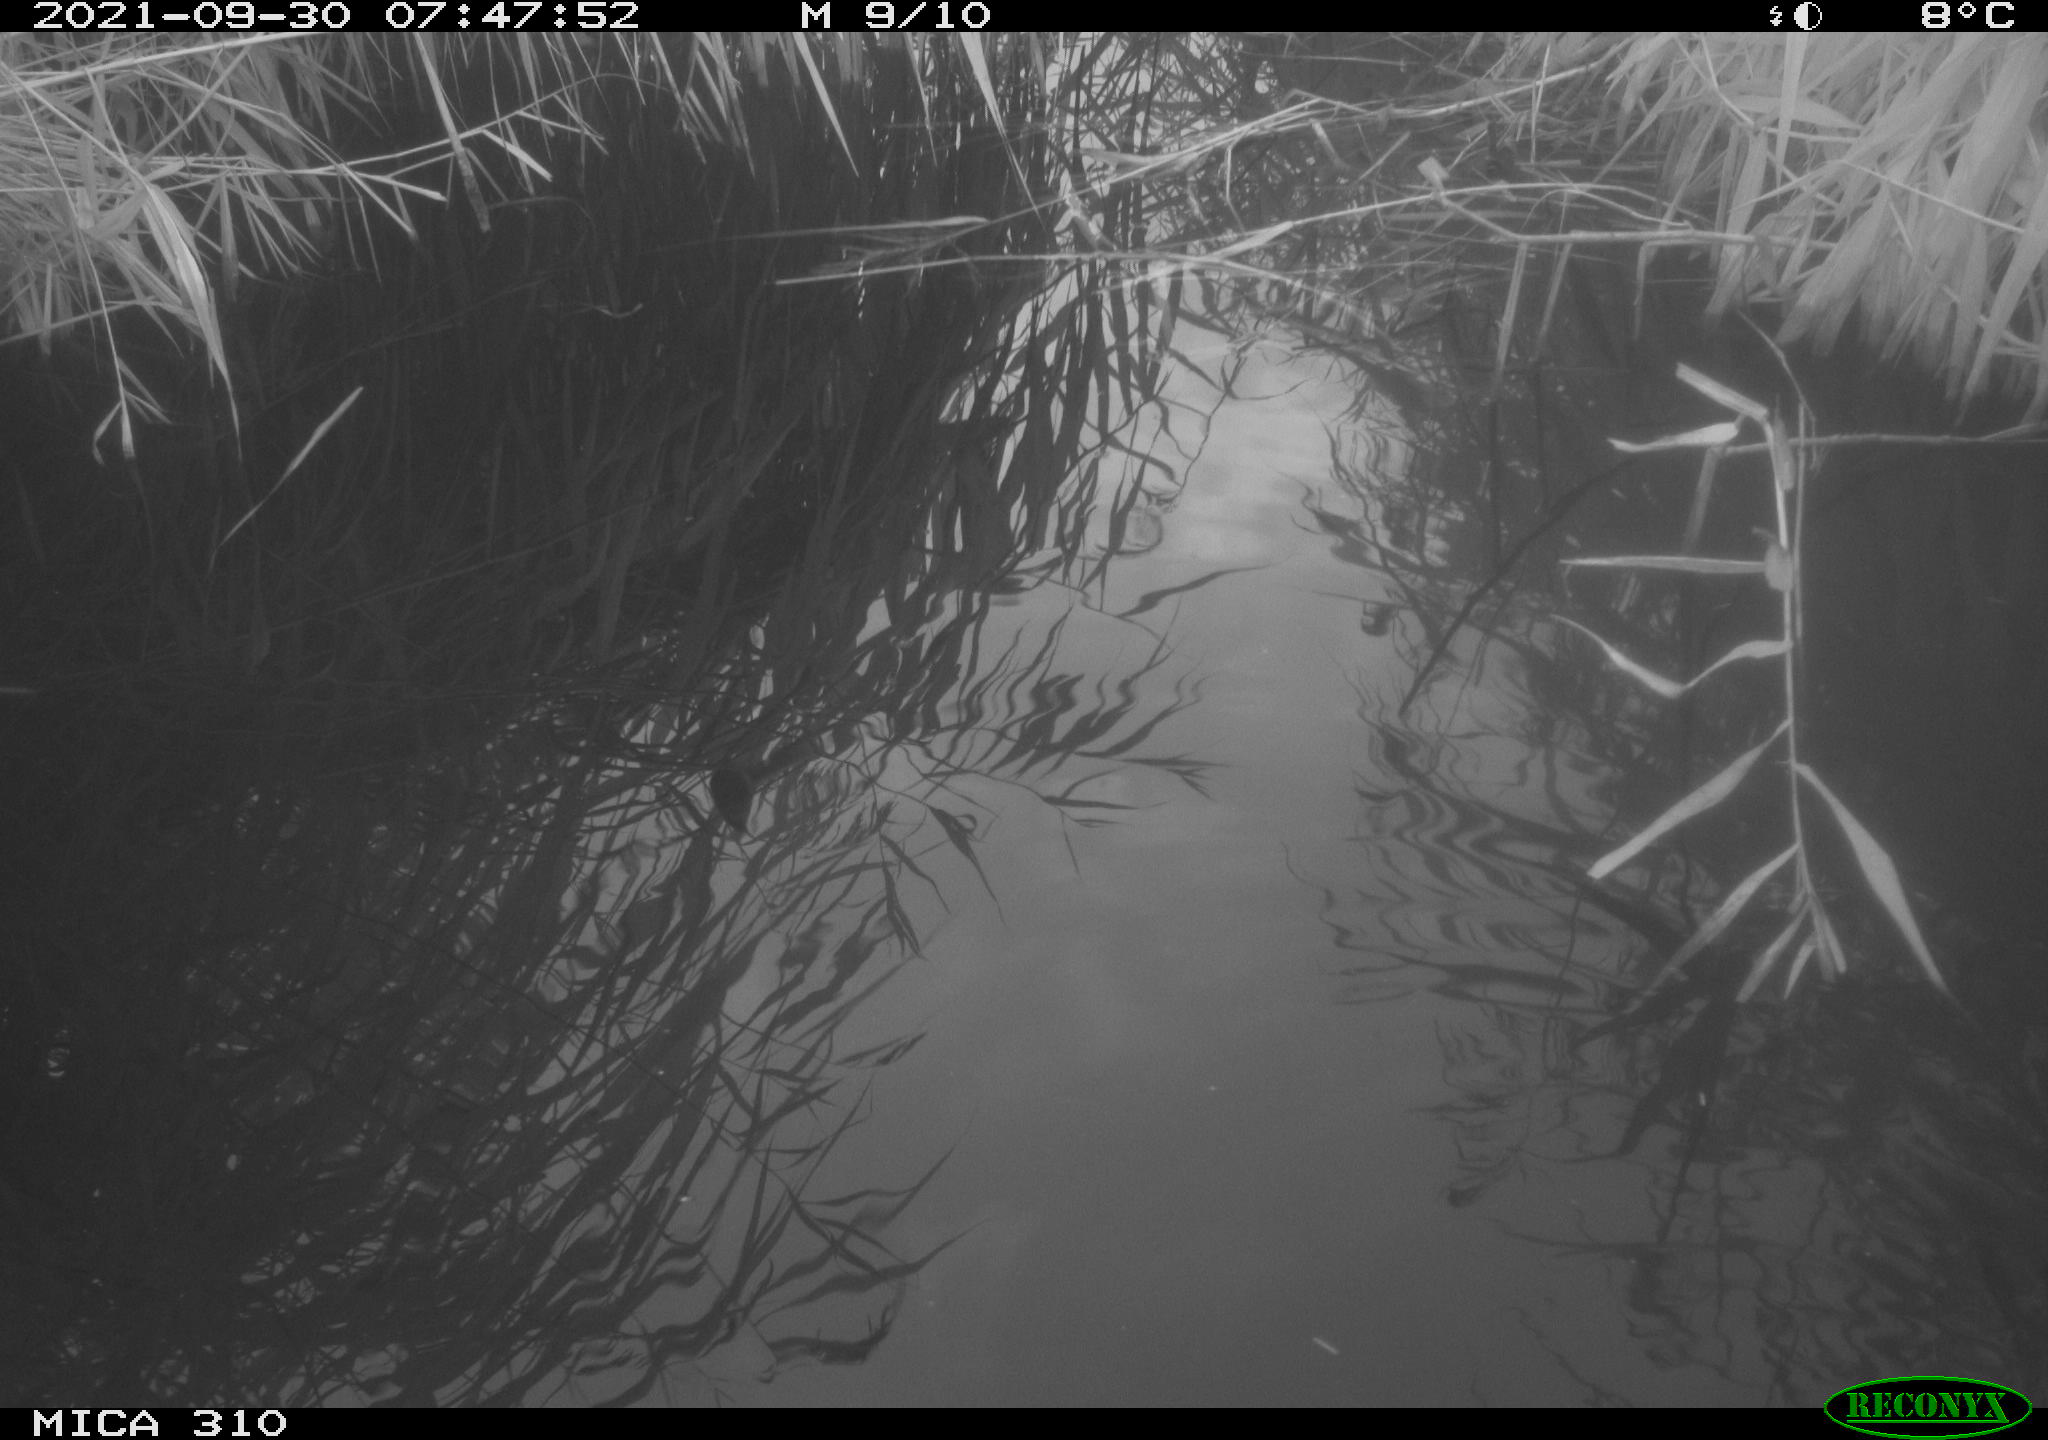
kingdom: Animalia
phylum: Chordata
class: Aves
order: Gruiformes
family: Rallidae
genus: Gallinula
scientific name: Gallinula chloropus
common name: Common moorhen
